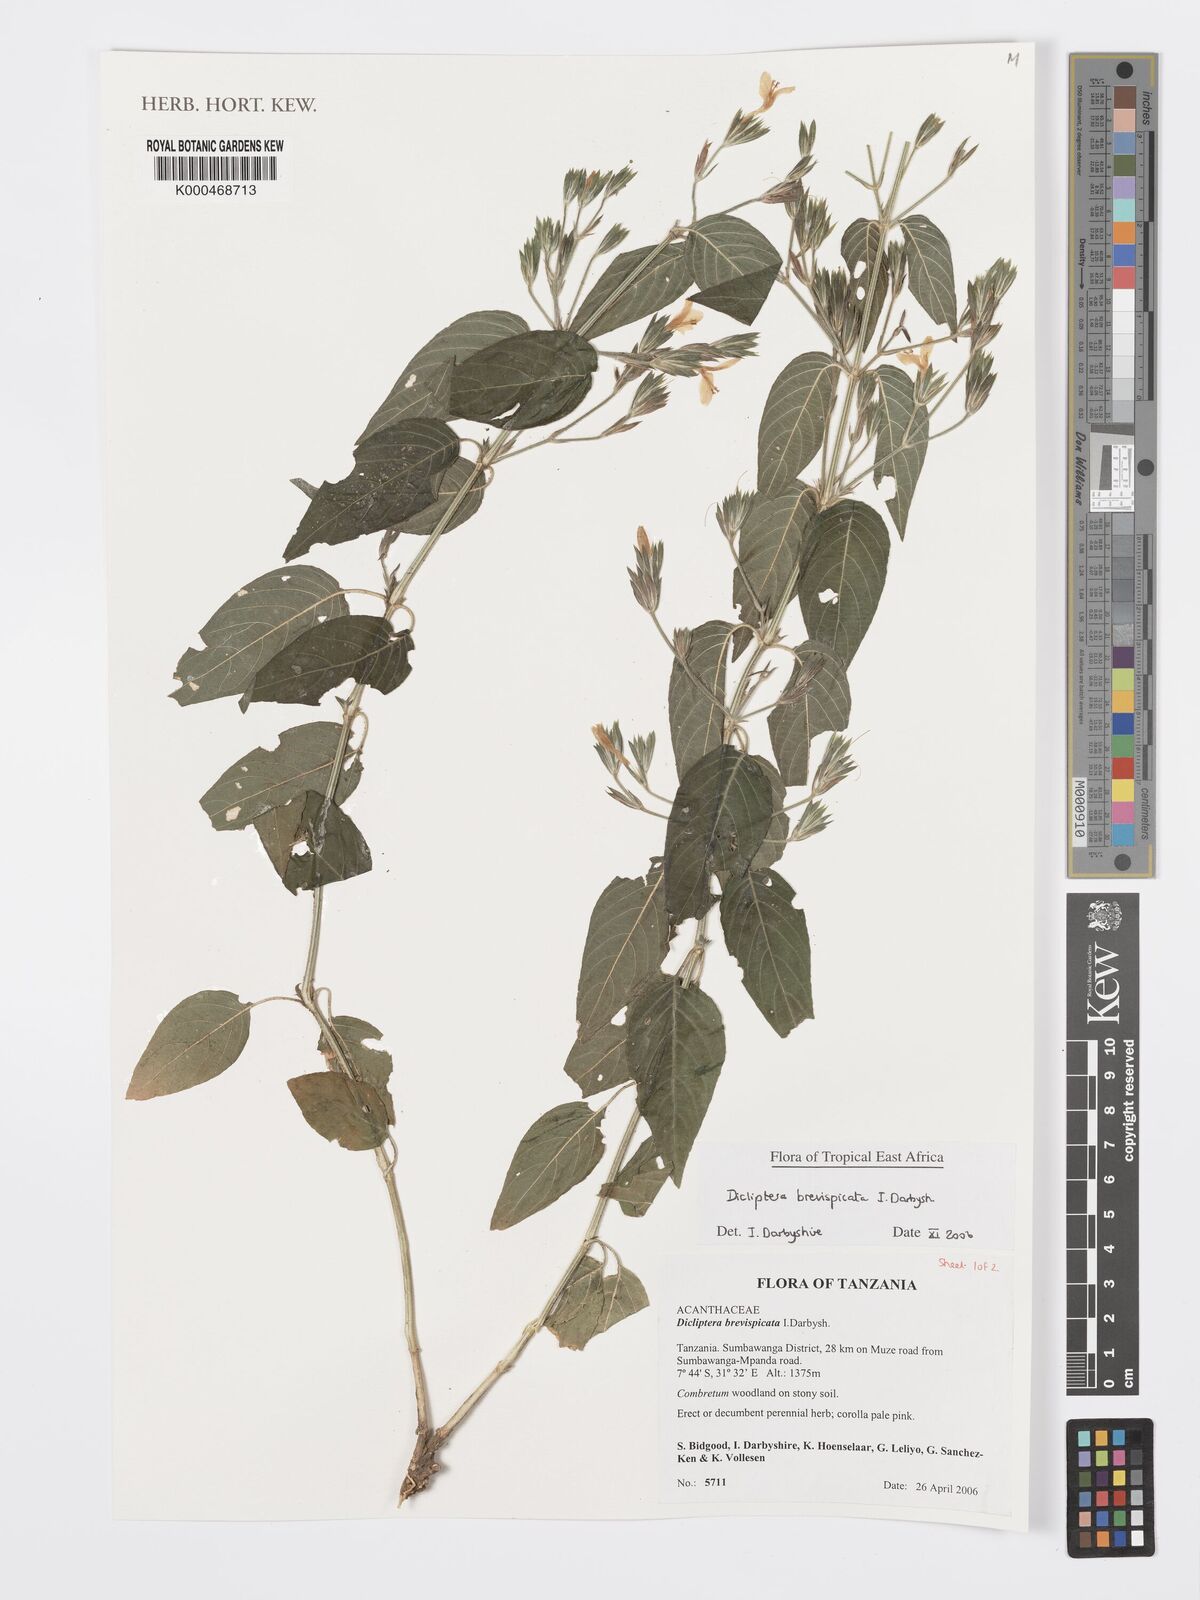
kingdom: Plantae
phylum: Tracheophyta
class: Magnoliopsida
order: Lamiales
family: Acanthaceae
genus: Dicliptera
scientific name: Dicliptera brevispicata
